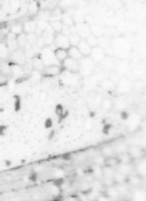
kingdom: Animalia
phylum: Chordata
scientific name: Chordata
